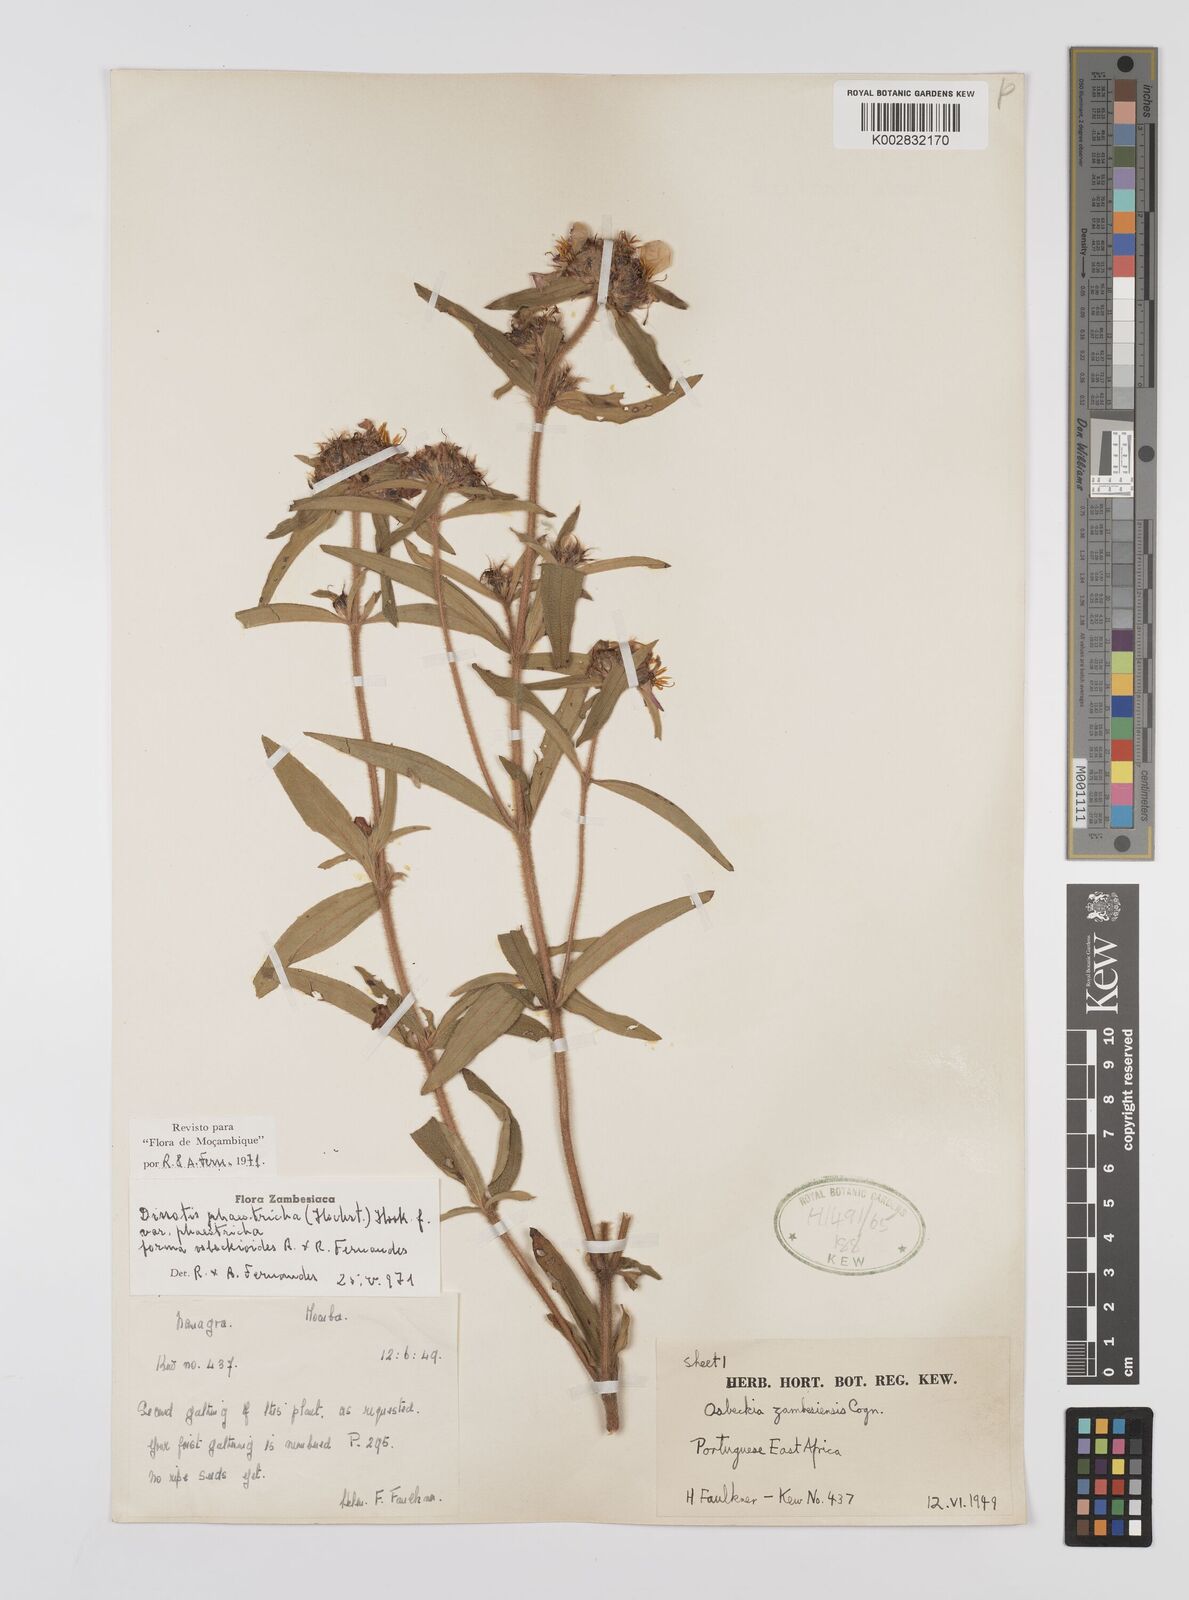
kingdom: Plantae
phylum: Tracheophyta
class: Magnoliopsida
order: Myrtales
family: Melastomataceae
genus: Antherotoma
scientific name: Antherotoma phaeotricha
